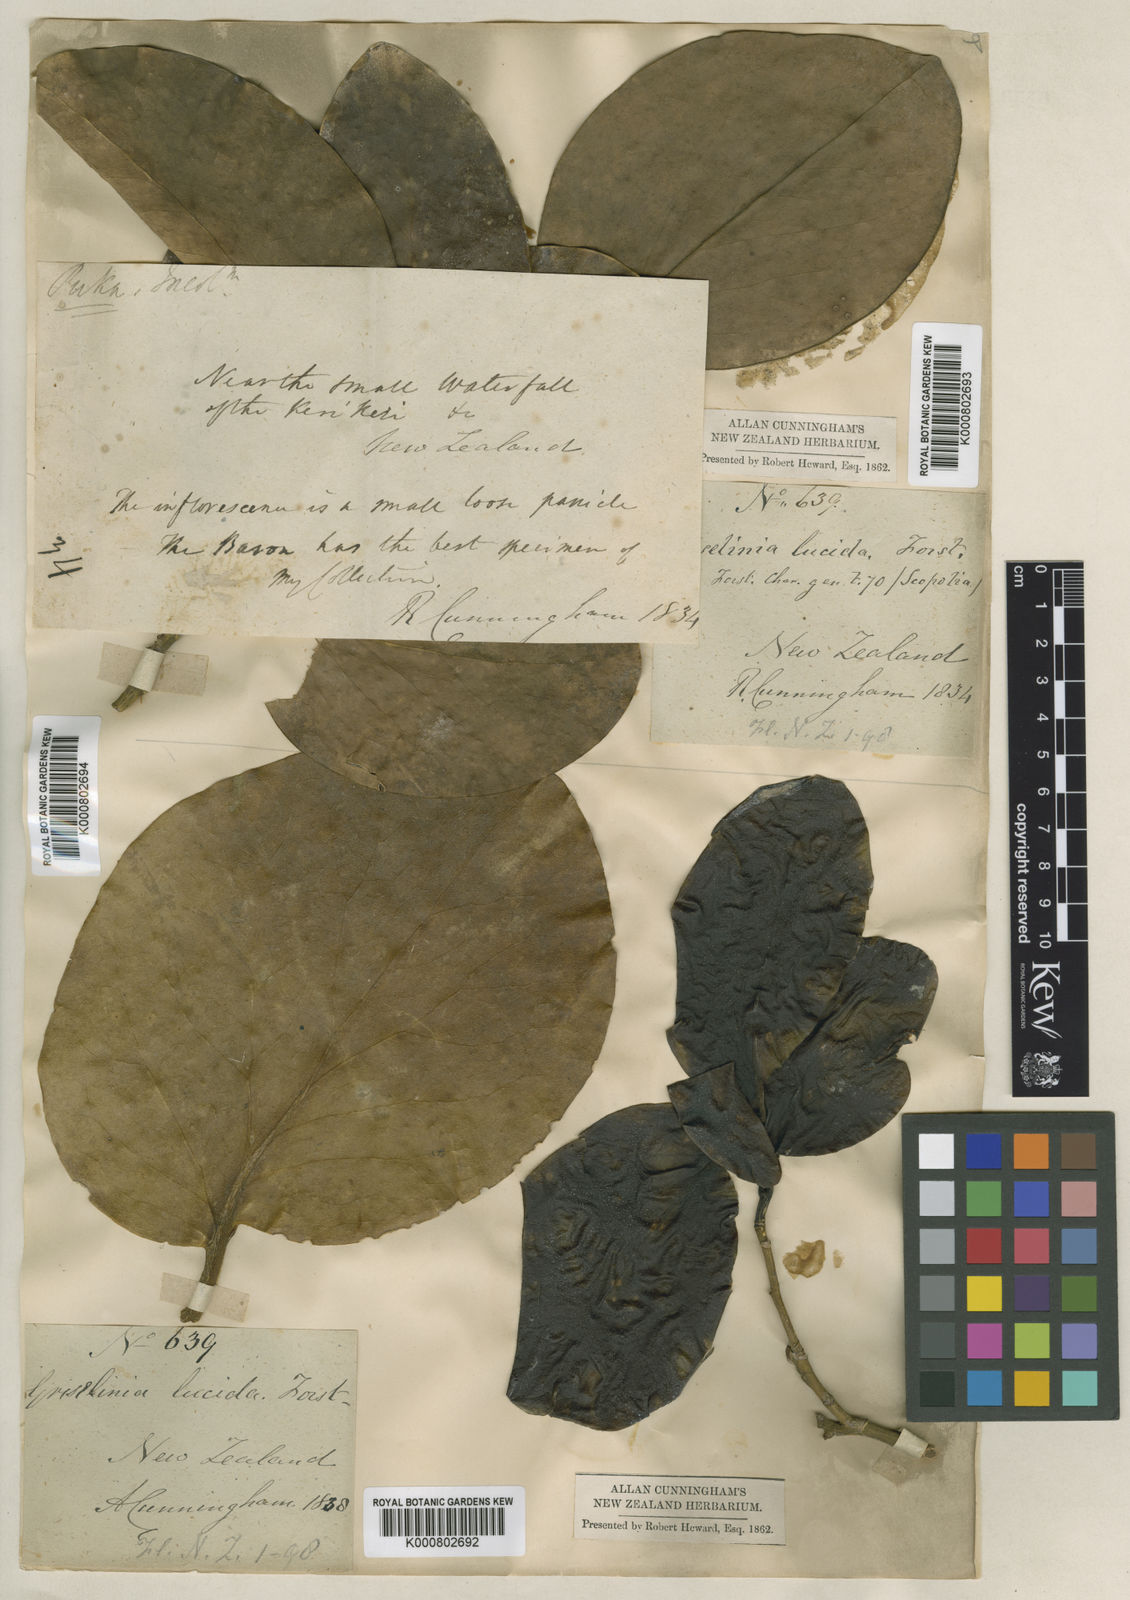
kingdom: Plantae
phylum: Tracheophyta
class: Magnoliopsida
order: Chloranthales
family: Chloranthaceae
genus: Ascarina
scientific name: Ascarina lucida
